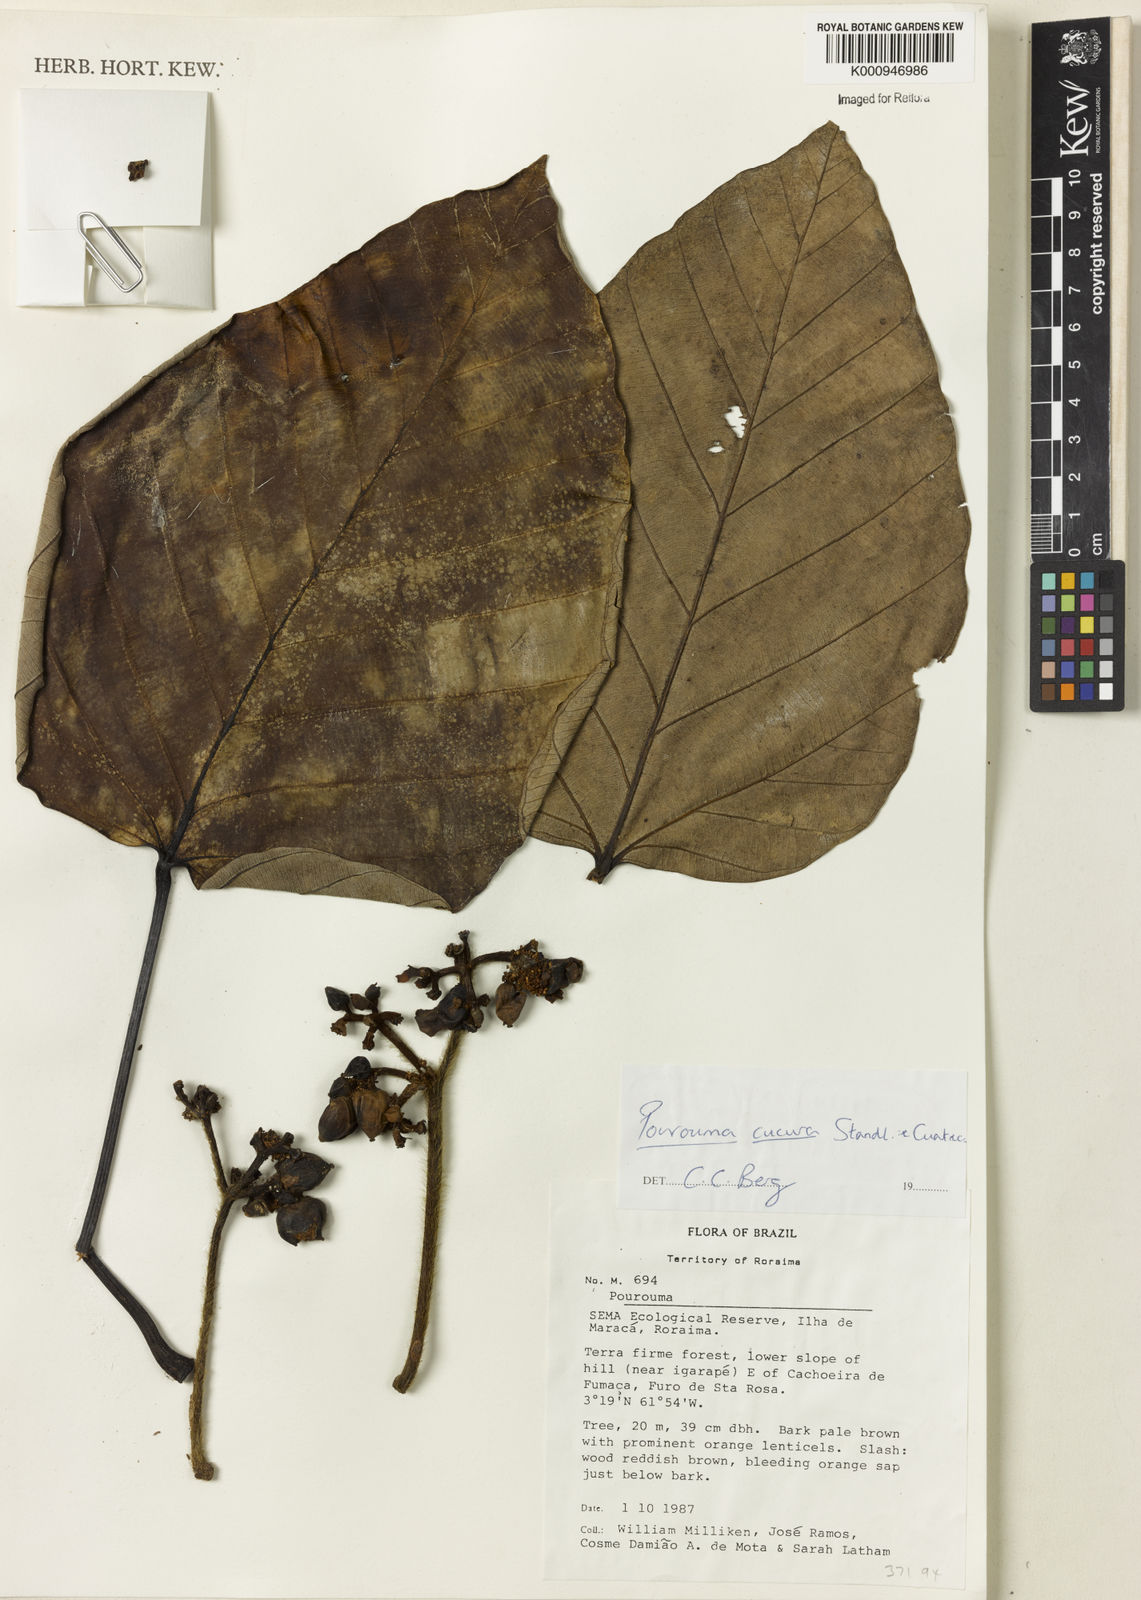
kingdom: Plantae
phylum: Tracheophyta
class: Magnoliopsida
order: Rosales
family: Urticaceae
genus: Pourouma
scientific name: Pourouma cucura
